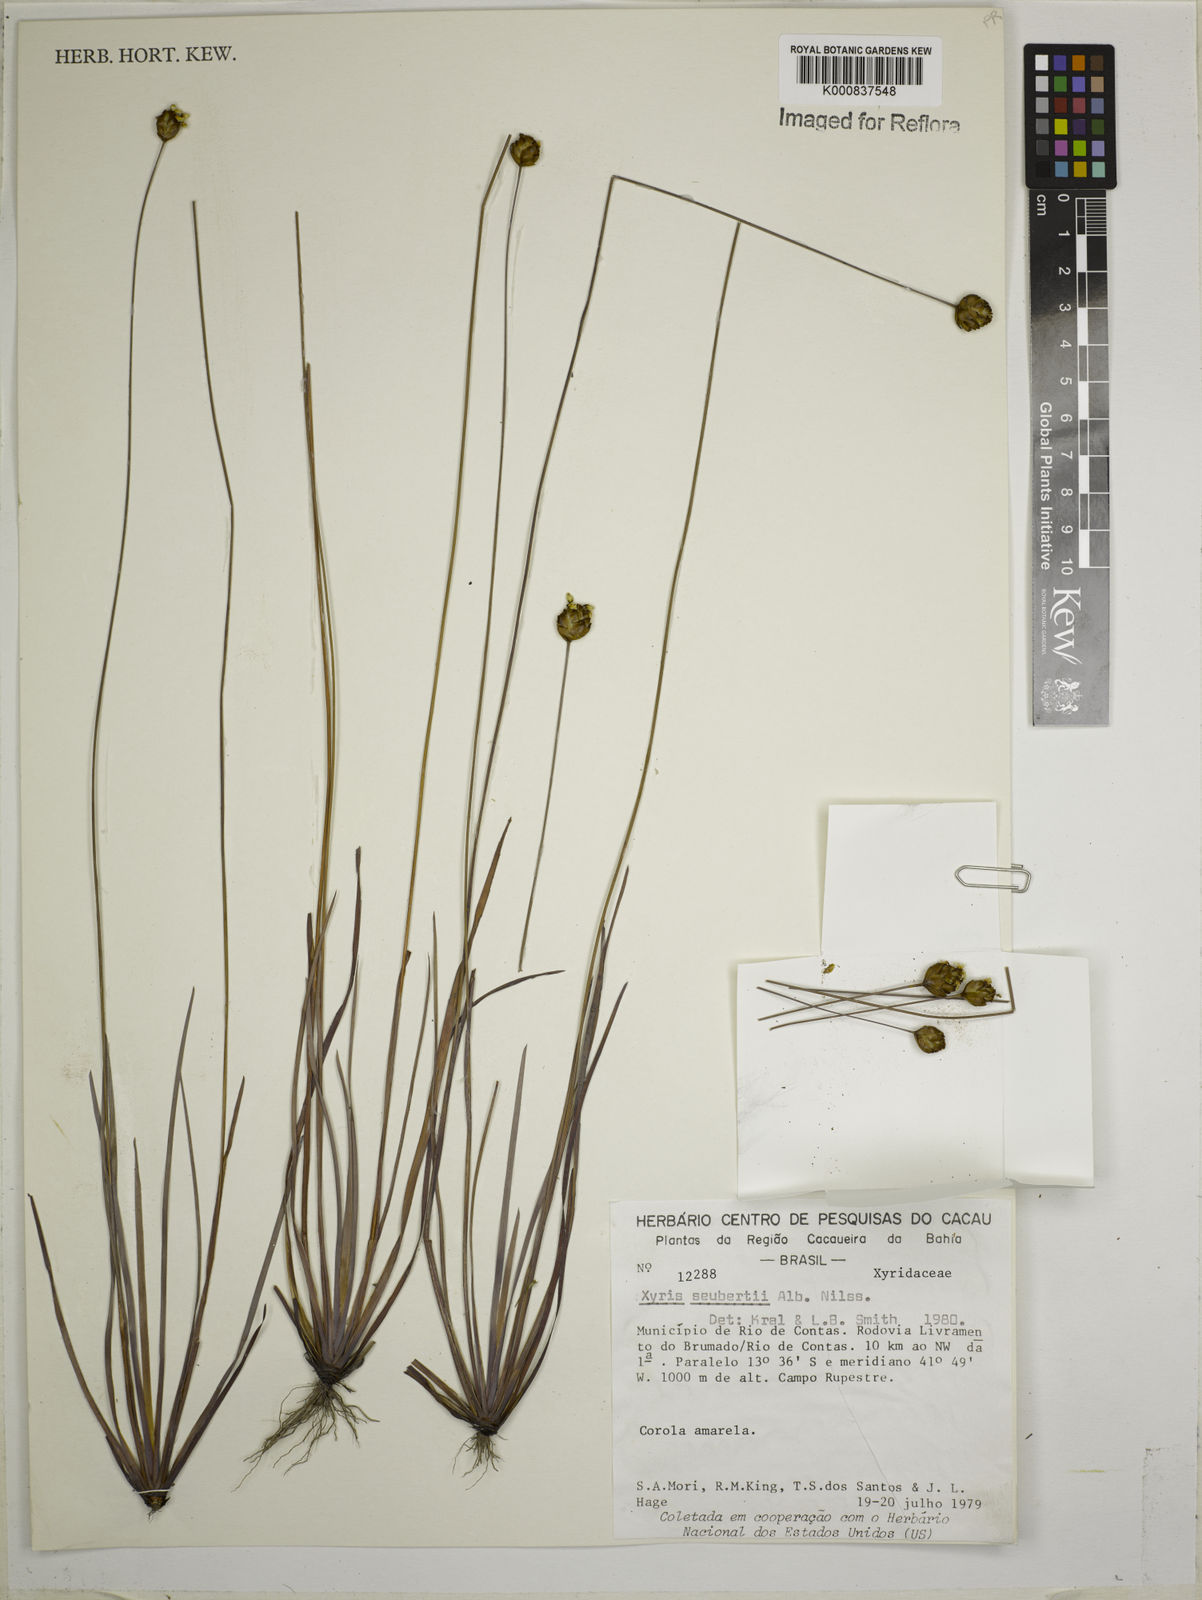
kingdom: Plantae
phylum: Tracheophyta
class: Liliopsida
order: Poales
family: Xyridaceae
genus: Xyris
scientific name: Xyris seubertii
